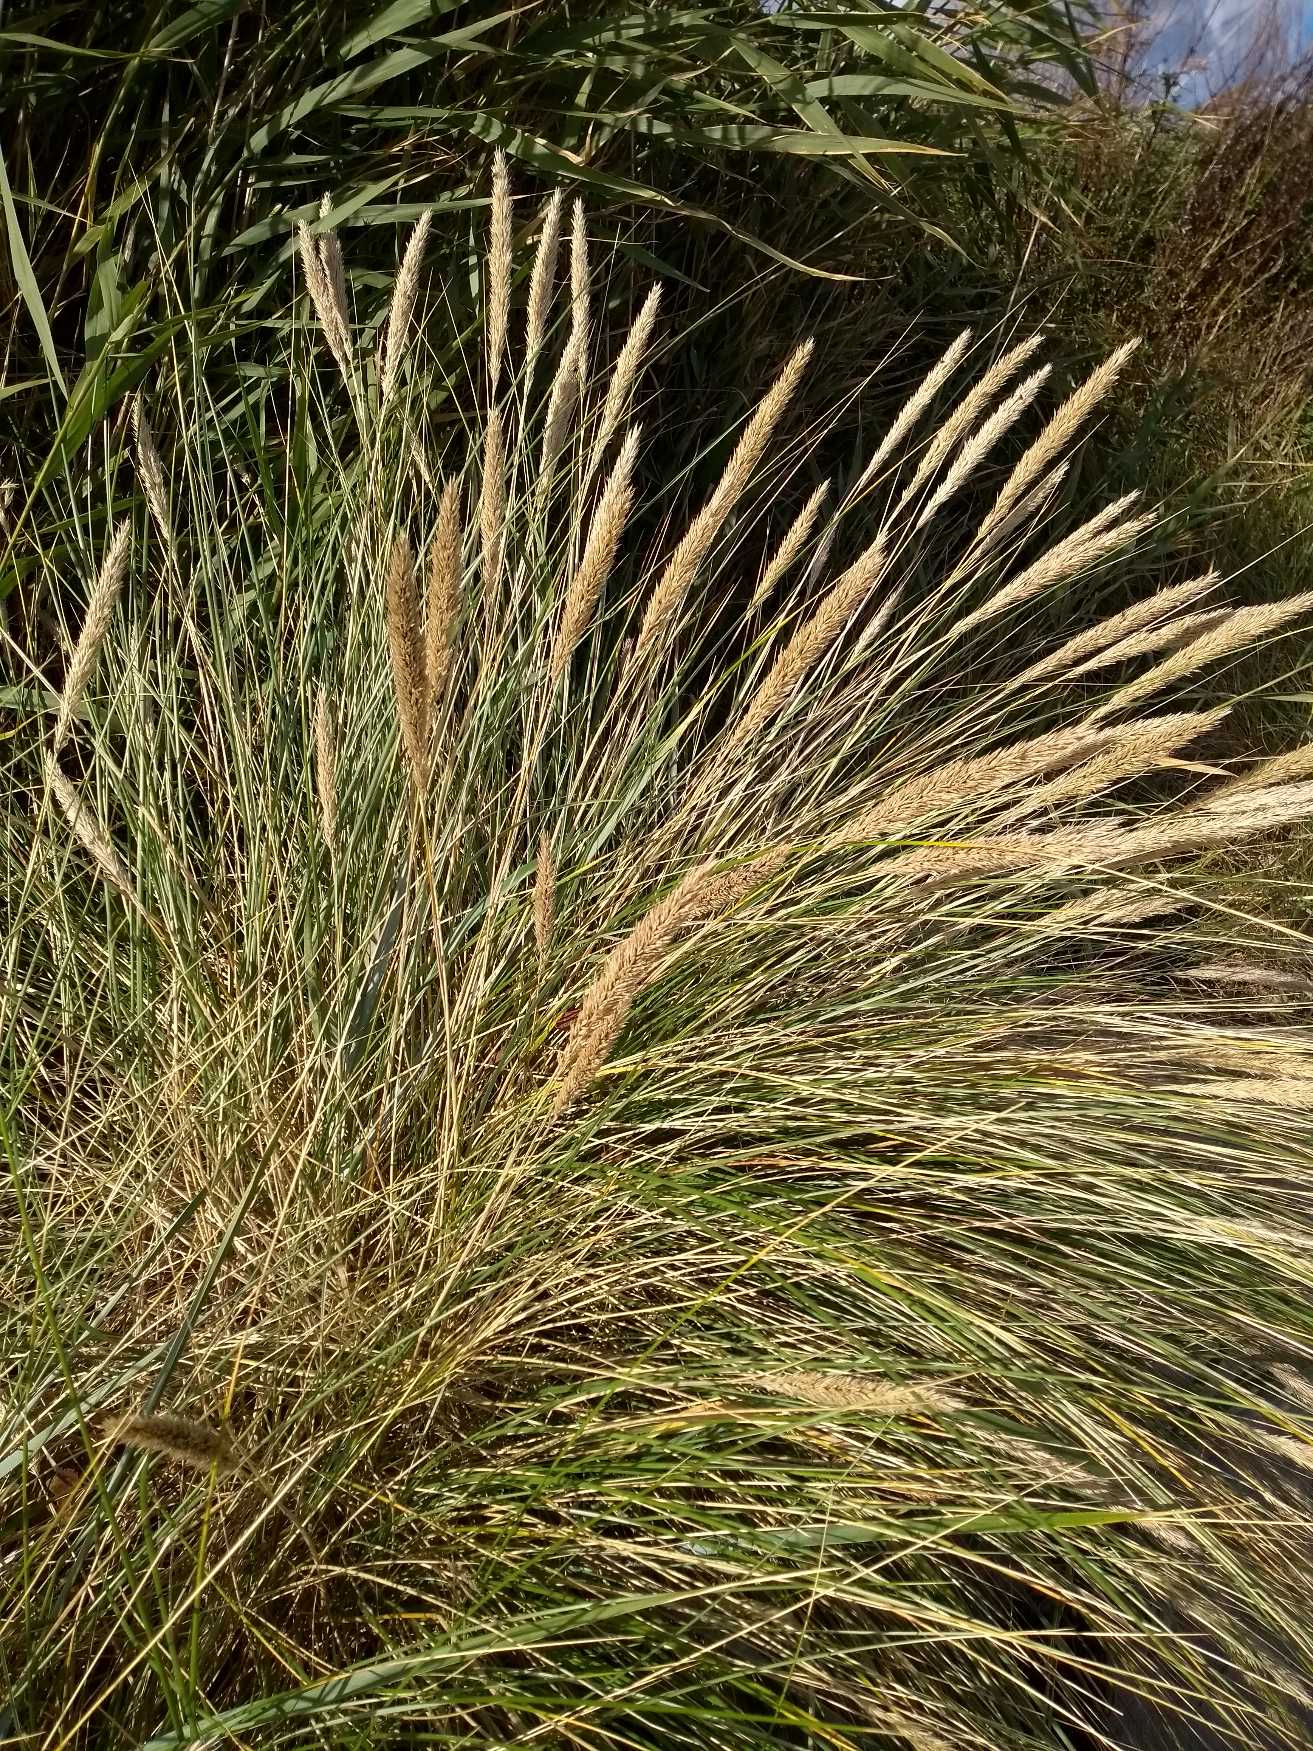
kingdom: Plantae
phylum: Tracheophyta
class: Liliopsida
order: Poales
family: Poaceae
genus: Calamagrostis
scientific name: Calamagrostis arenaria
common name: Sand-hjælme
